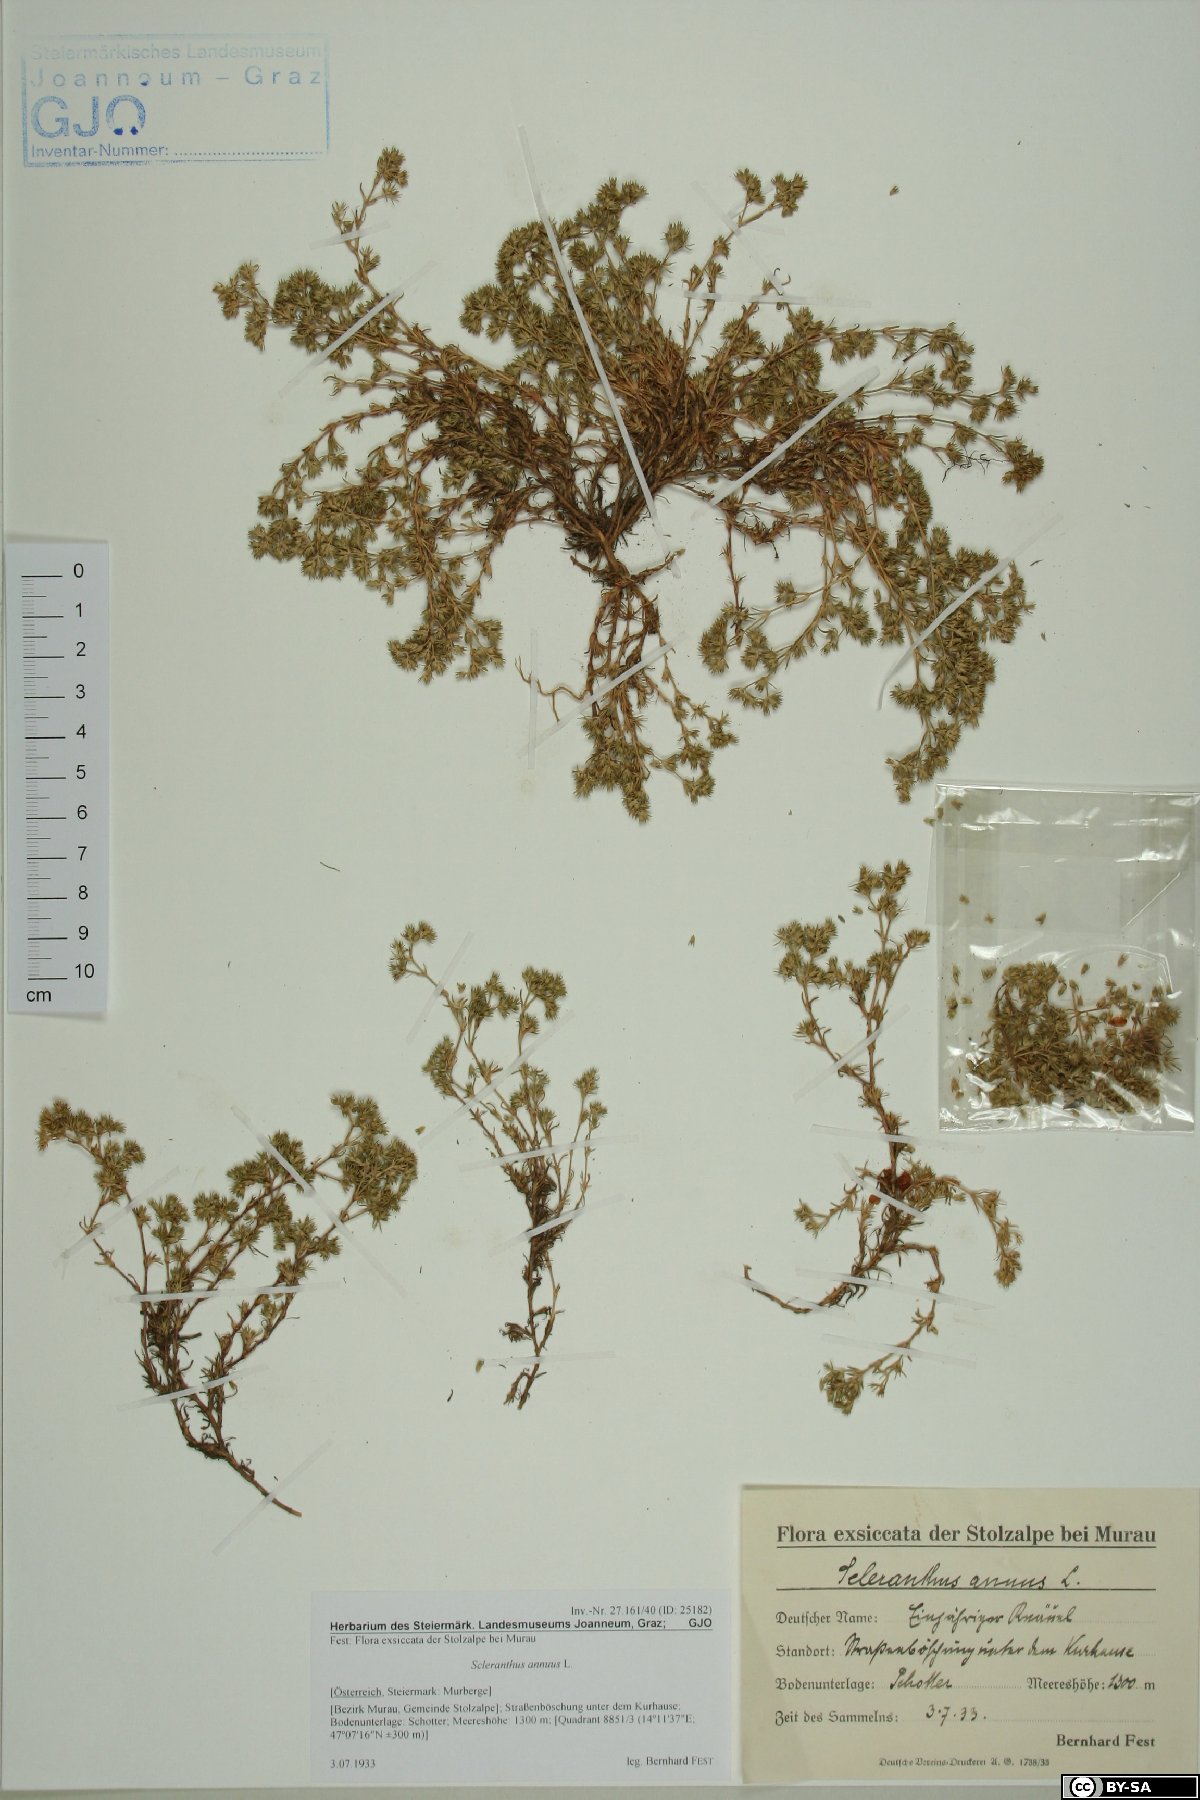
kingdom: Plantae
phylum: Tracheophyta
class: Magnoliopsida
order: Caryophyllales
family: Caryophyllaceae
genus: Scleranthus
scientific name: Scleranthus annuus
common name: Annual knawel
